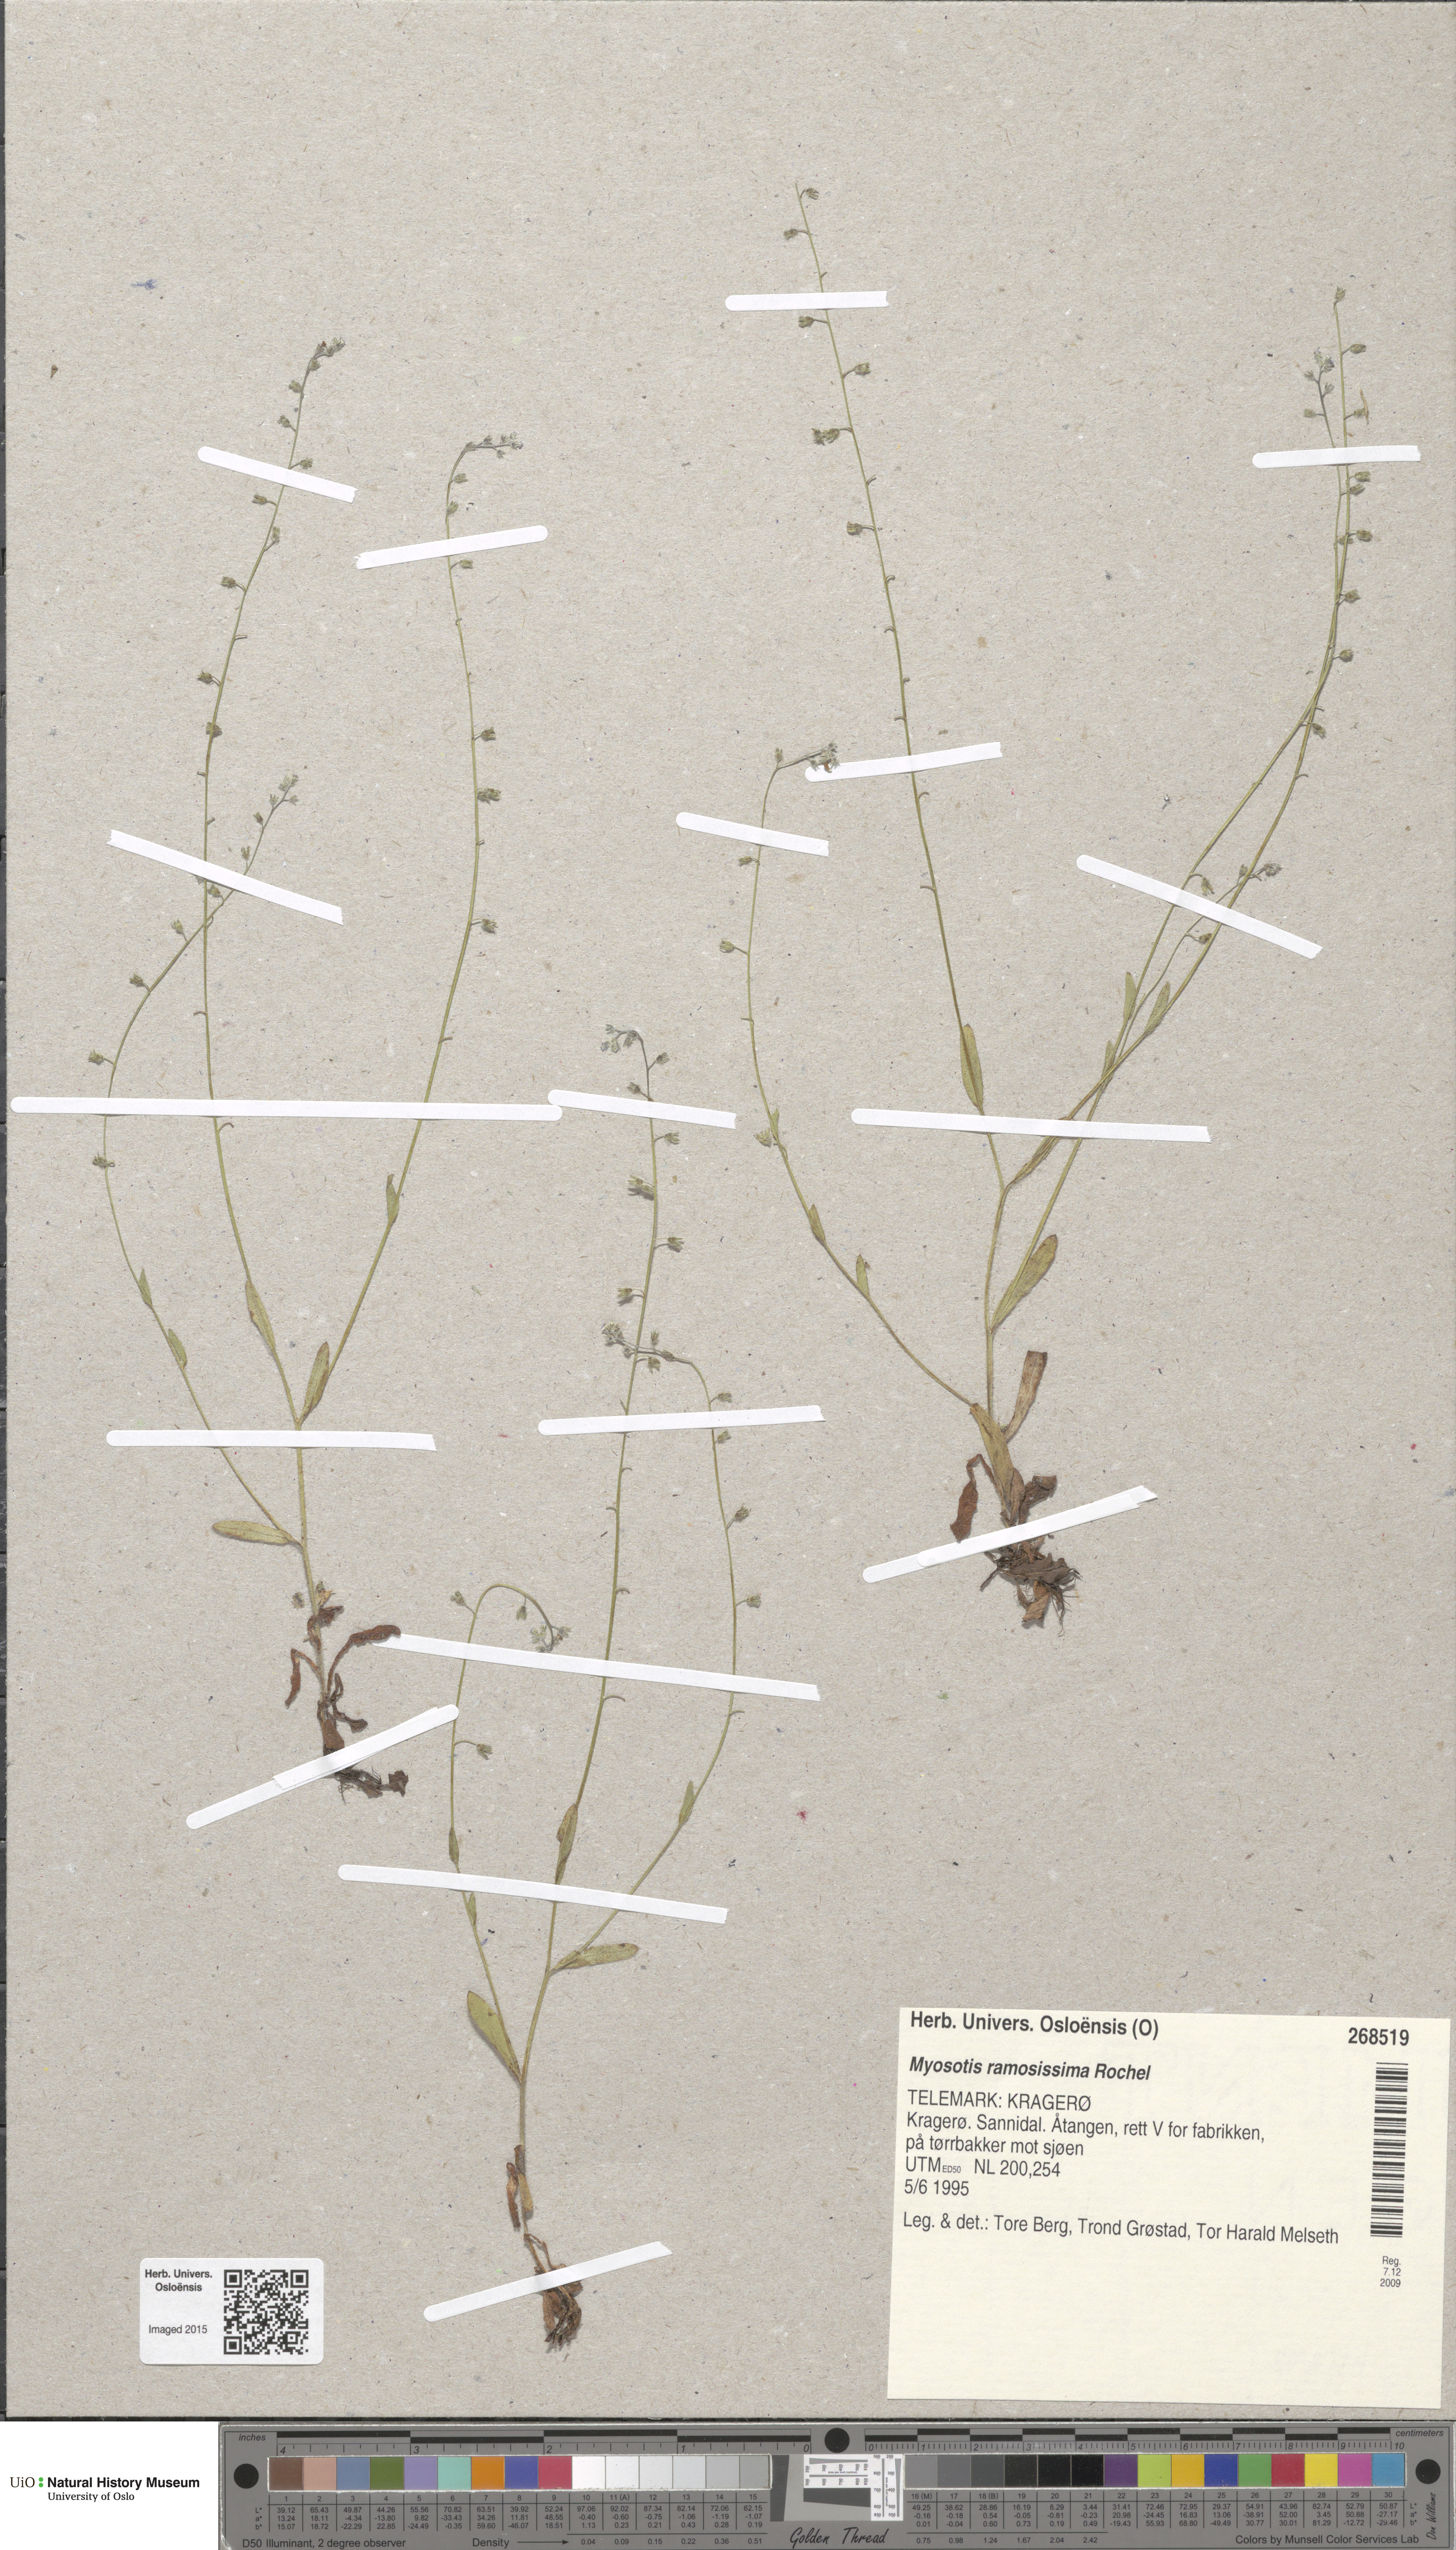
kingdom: Plantae
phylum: Tracheophyta
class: Magnoliopsida
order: Boraginales
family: Boraginaceae
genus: Myosotis
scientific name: Myosotis ramosissima
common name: Early forget-me-not
